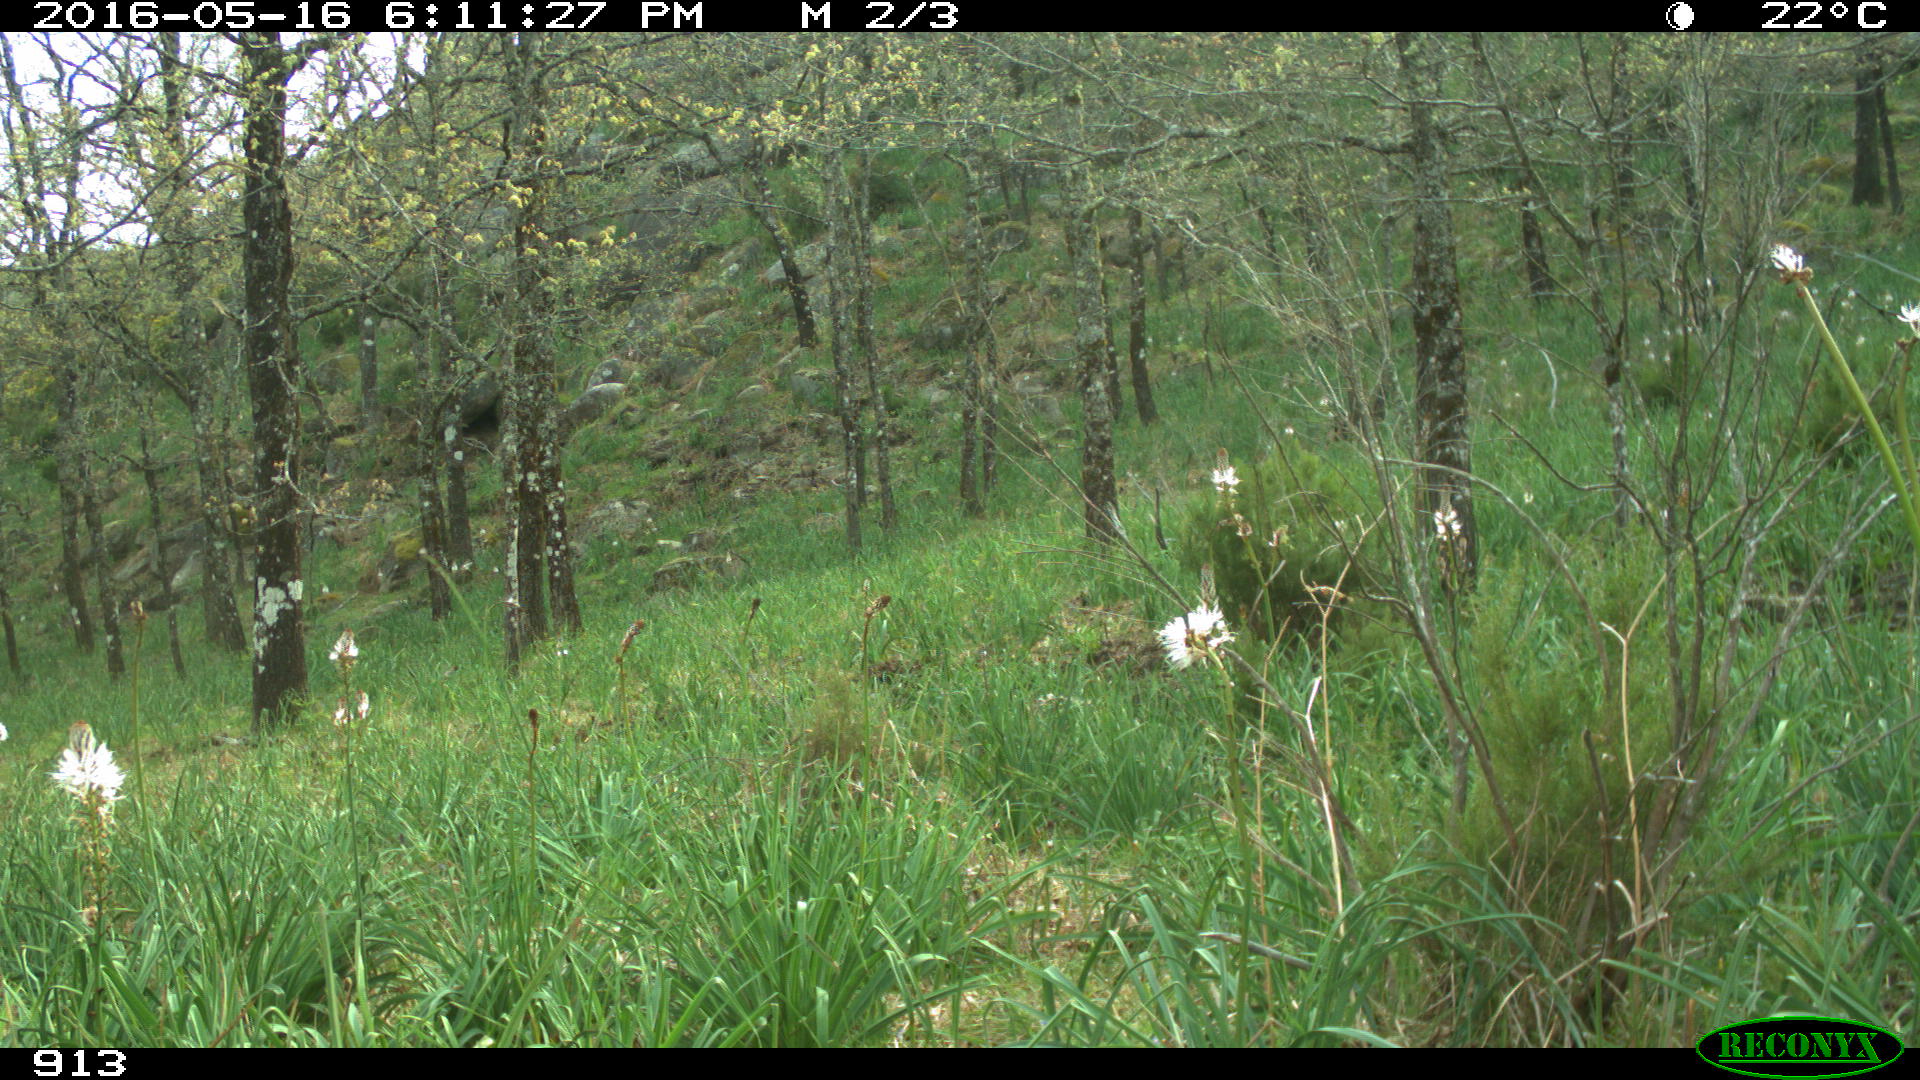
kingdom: Animalia
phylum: Chordata
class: Mammalia
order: Perissodactyla
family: Equidae
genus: Equus
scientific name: Equus caballus
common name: Horse
